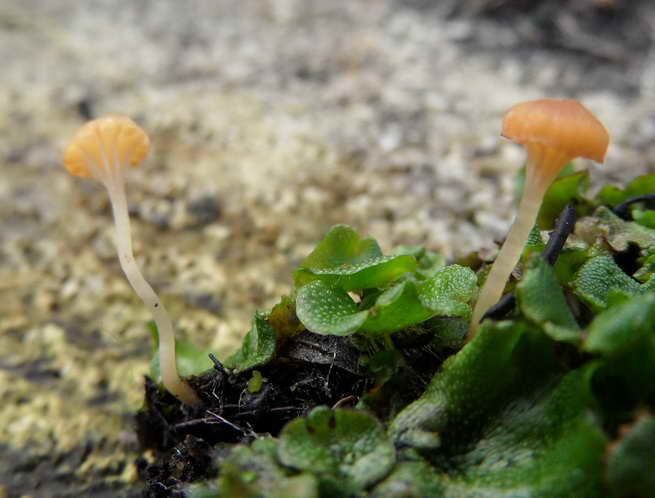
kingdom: Fungi
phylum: Basidiomycota
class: Agaricomycetes
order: Hymenochaetales
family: Rickenellaceae
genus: Loreleia
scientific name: Loreleia marchantiae
